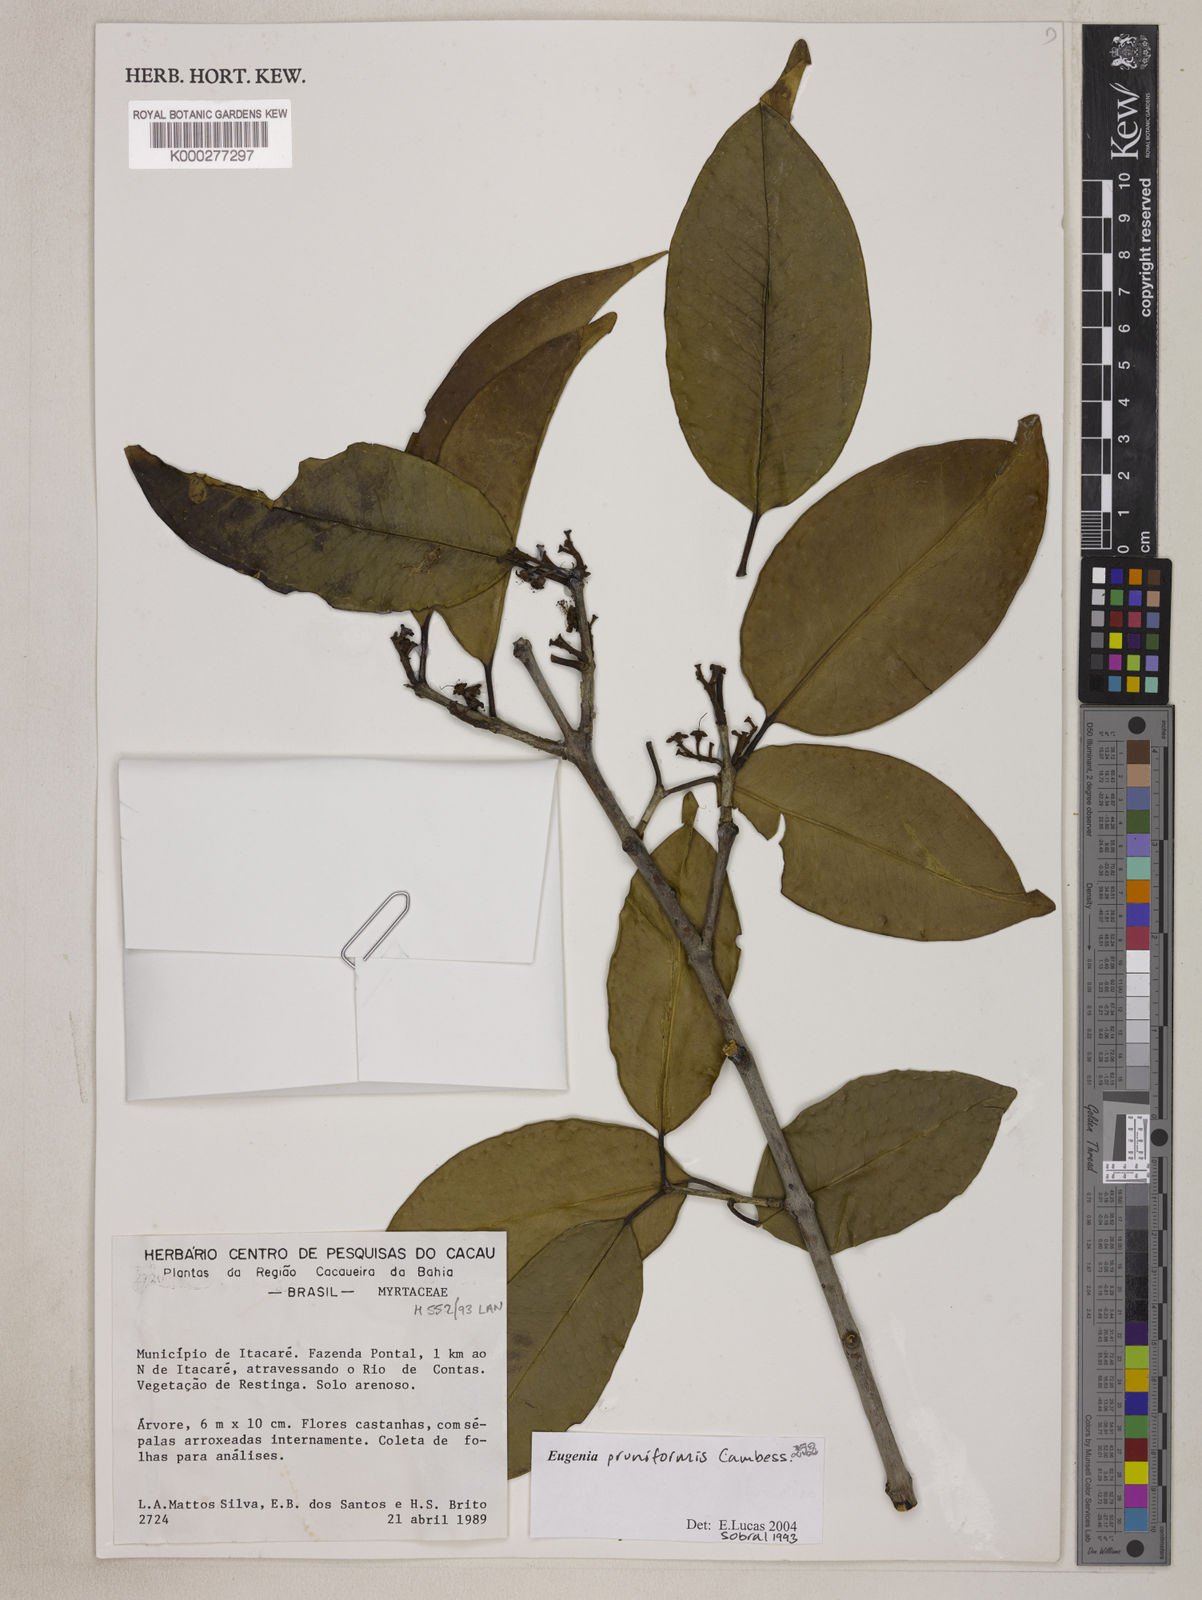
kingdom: Plantae
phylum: Tracheophyta
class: Magnoliopsida
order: Myrtales
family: Myrtaceae
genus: Eugenia
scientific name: Eugenia pruniformis
